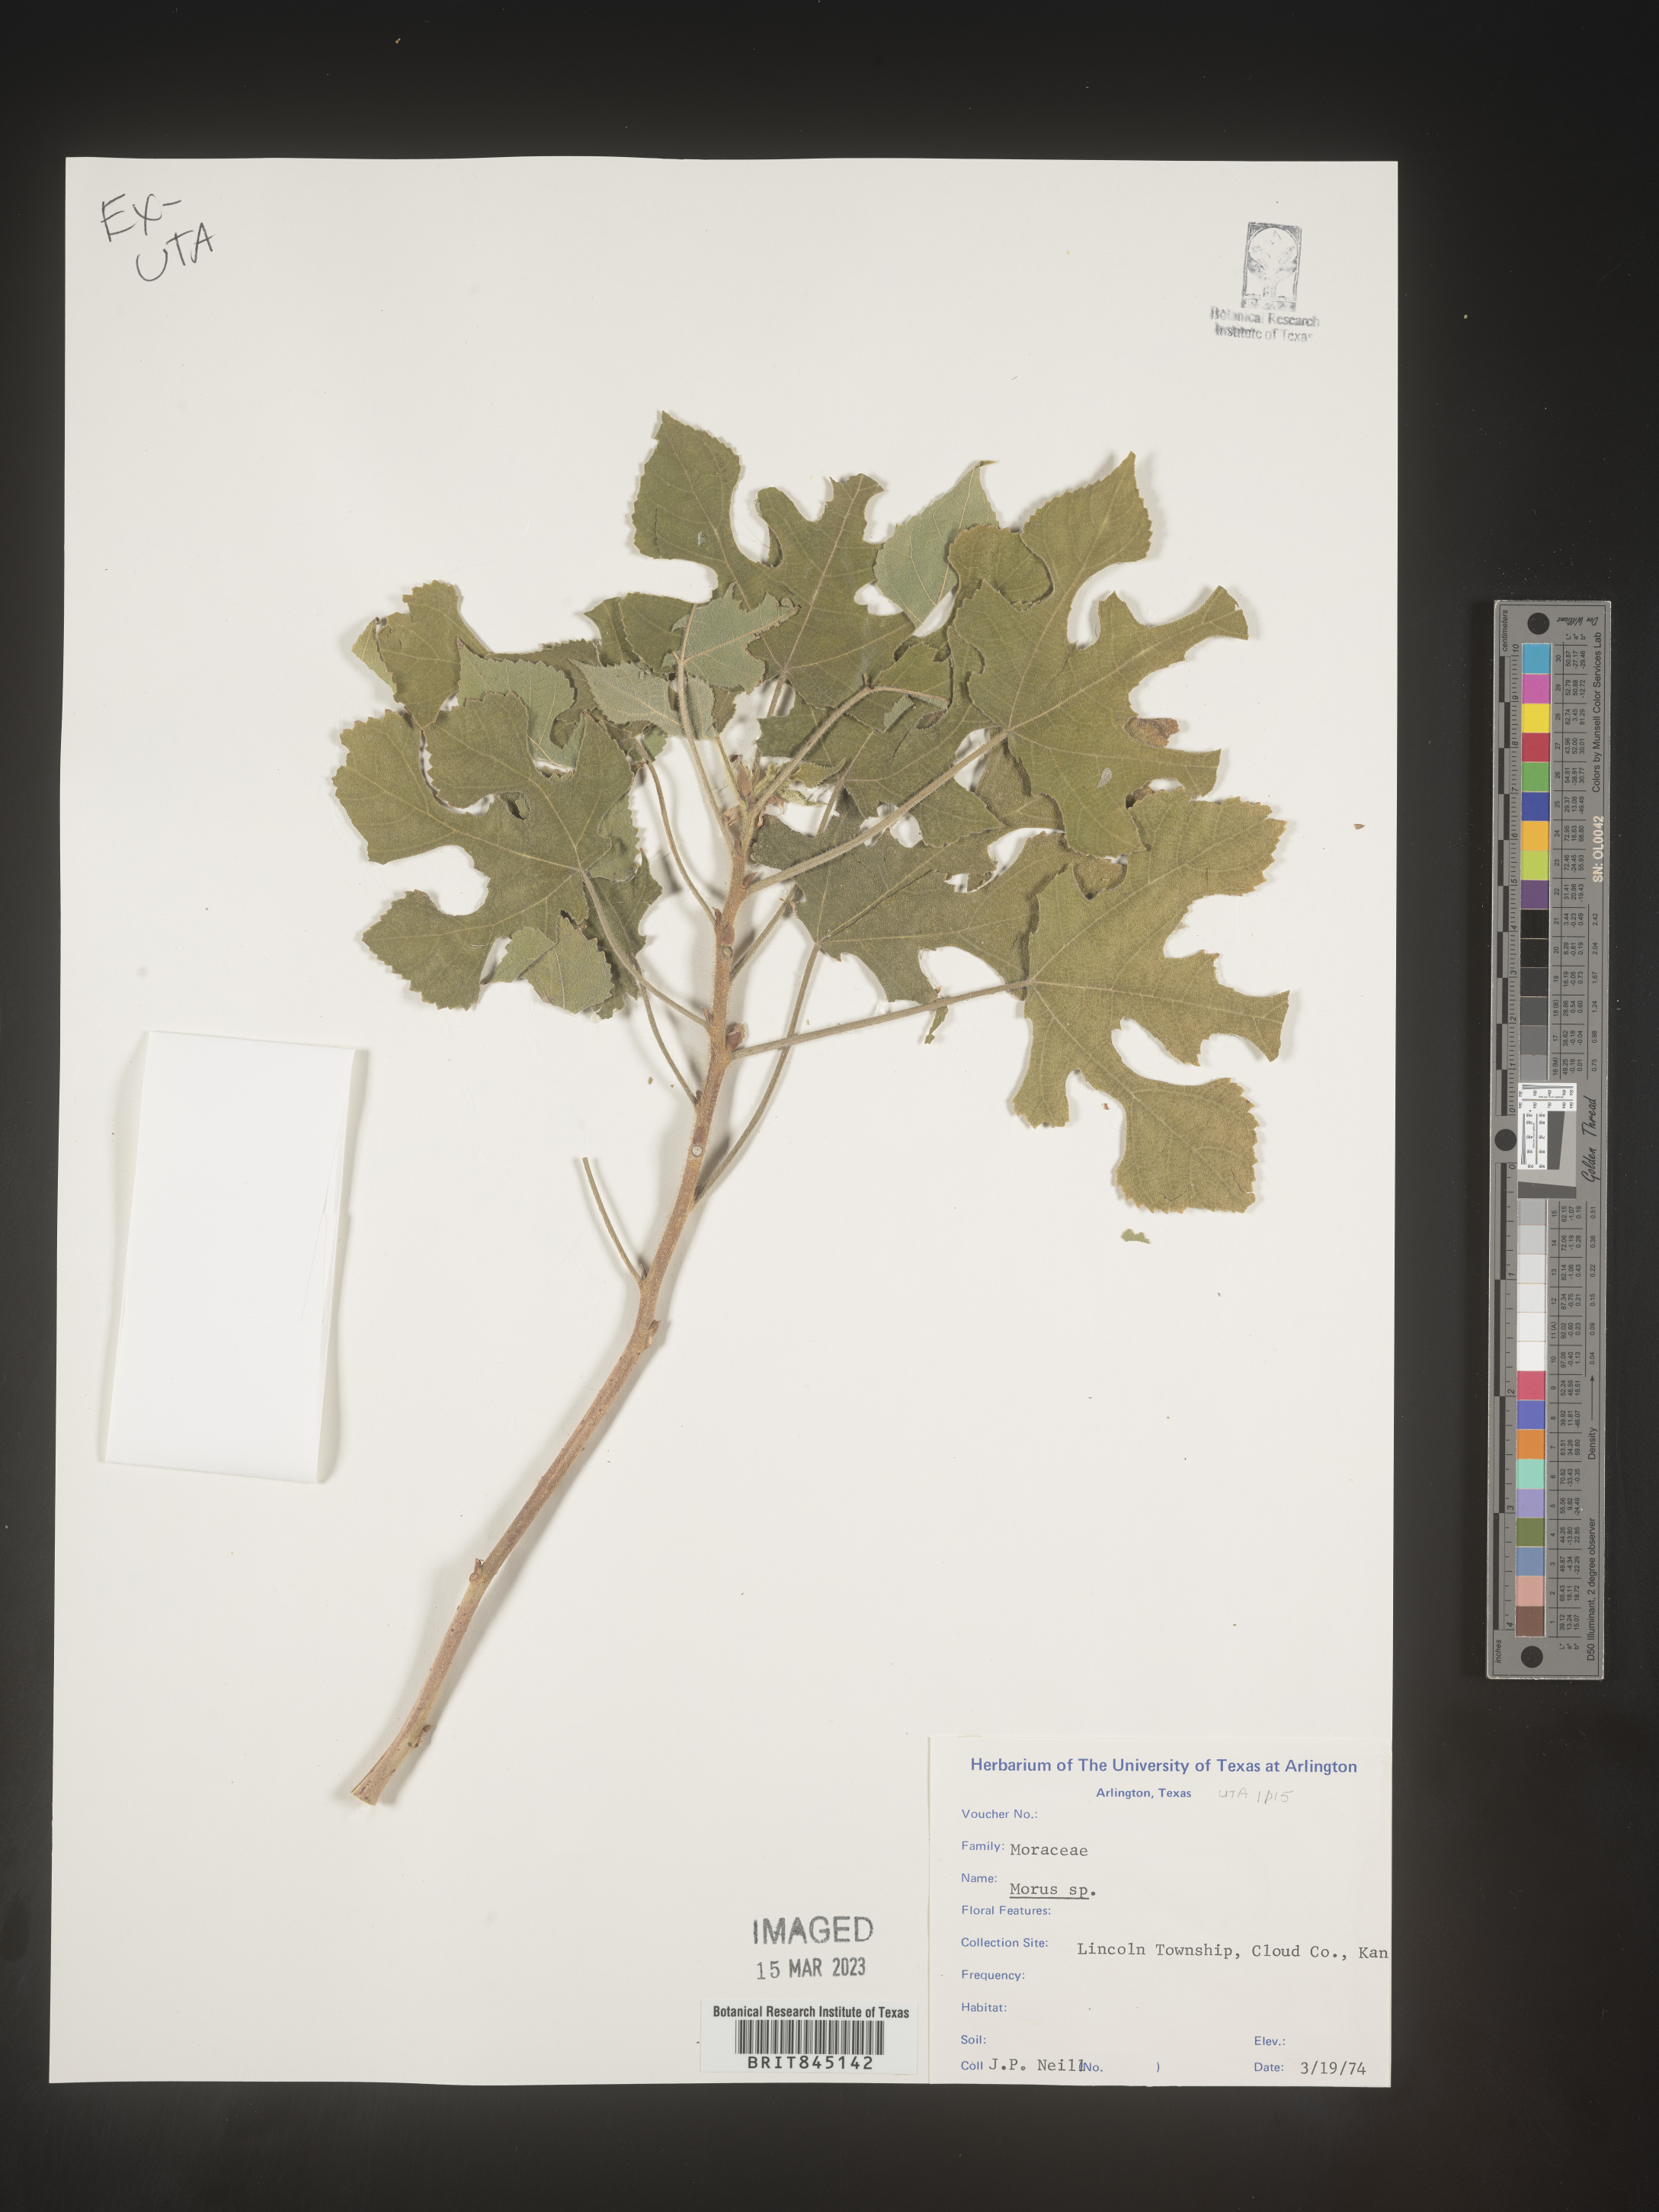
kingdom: Plantae
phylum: Tracheophyta
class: Magnoliopsida
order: Rosales
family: Moraceae
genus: Morus
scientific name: Morus
